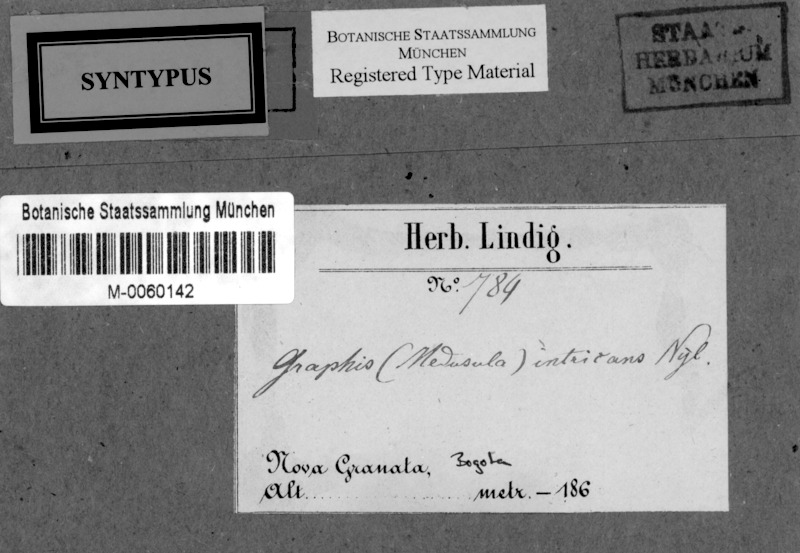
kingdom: Fungi
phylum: Ascomycota
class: Lecanoromycetes
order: Ostropales
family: Graphidaceae
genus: Sarcographa
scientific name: Sarcographa intricans
